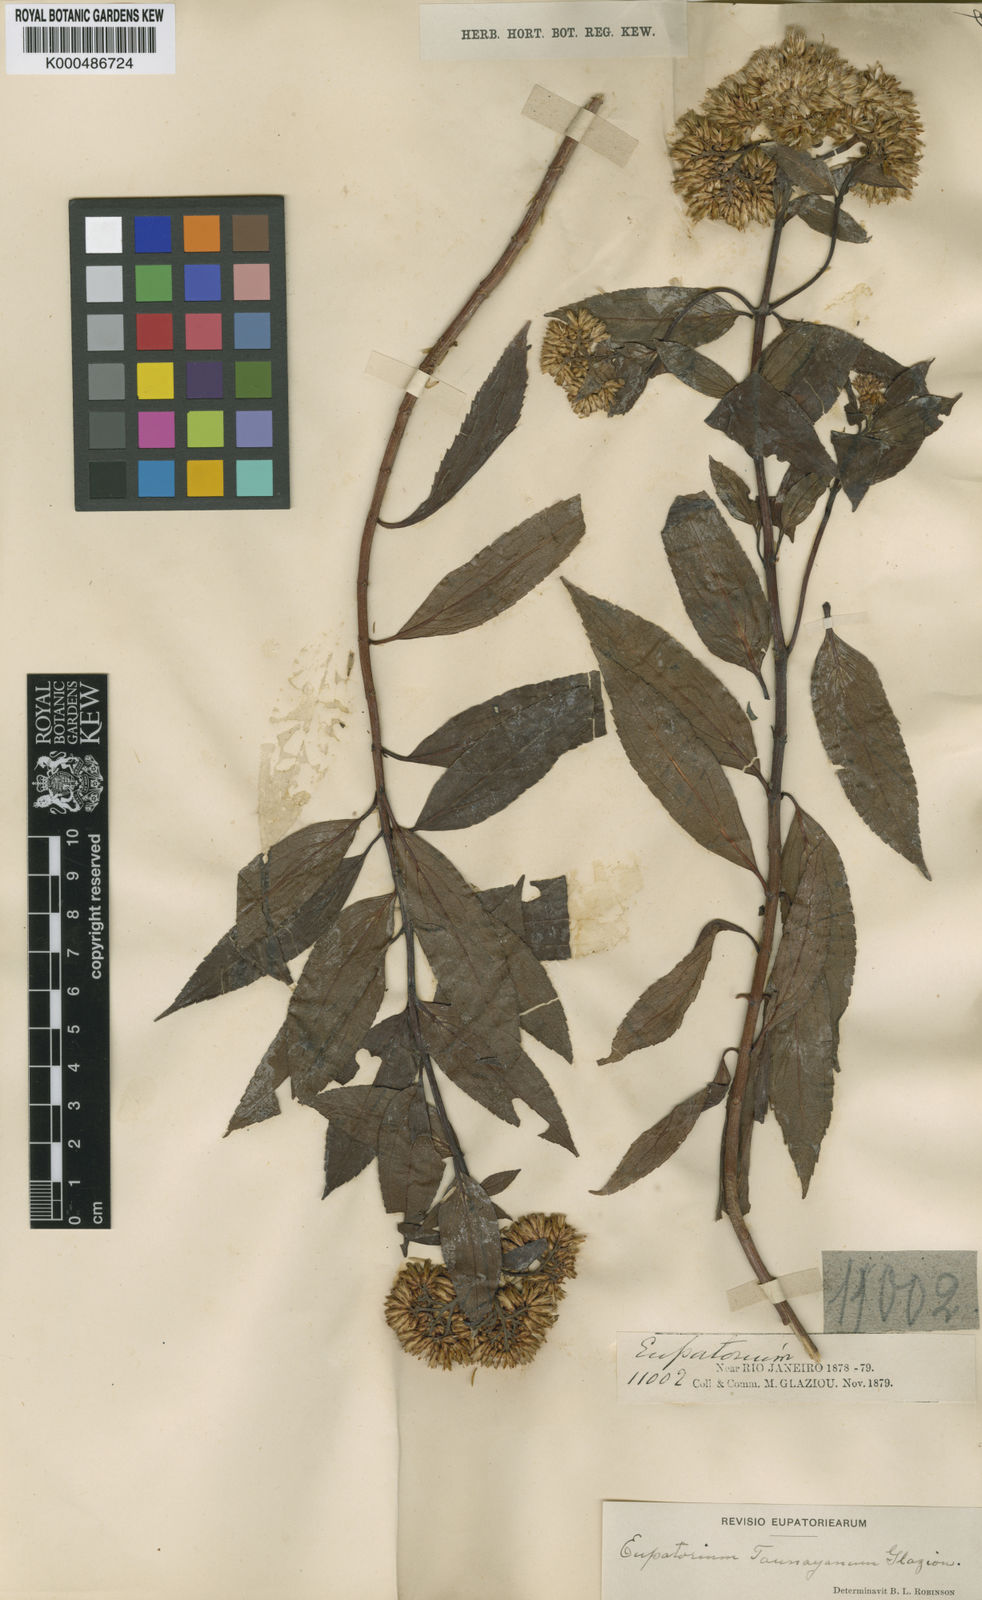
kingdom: Plantae
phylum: Tracheophyta
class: Magnoliopsida
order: Asterales
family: Asteraceae
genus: Austrocritonia
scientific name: Austrocritonia taunayana
